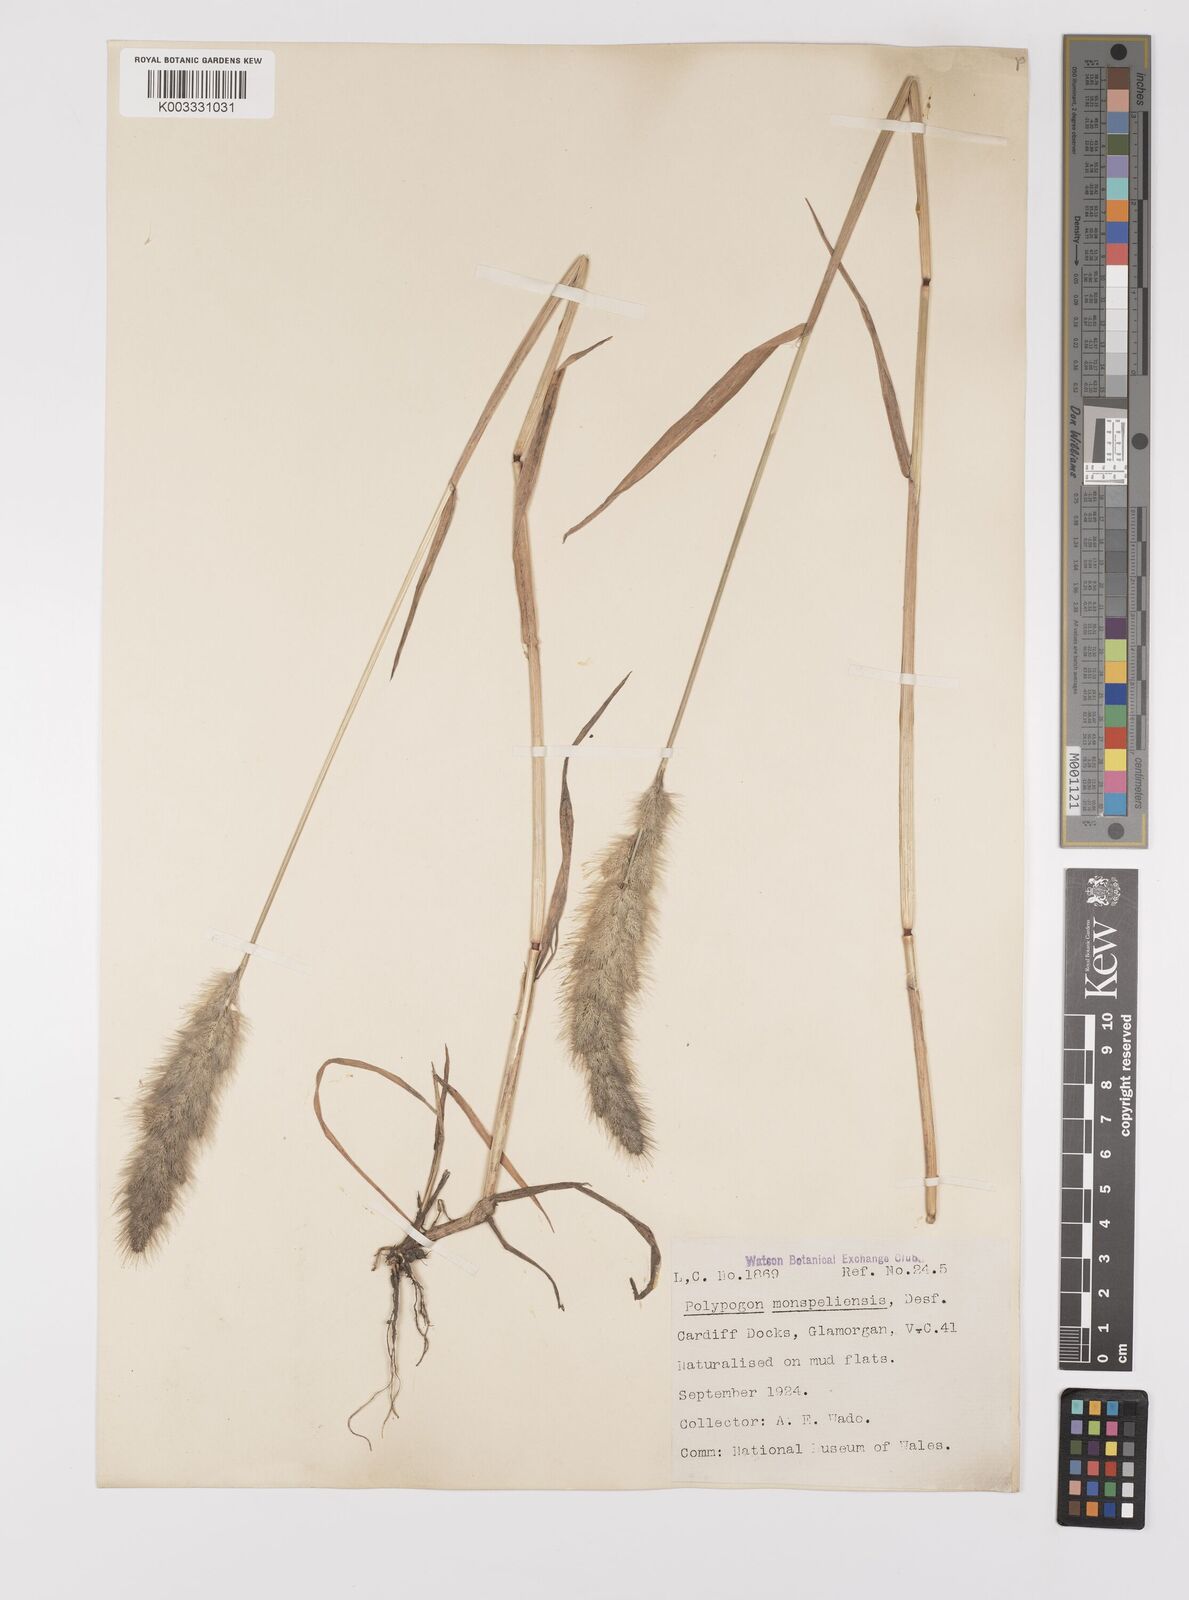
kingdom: Plantae
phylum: Tracheophyta
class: Liliopsida
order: Poales
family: Poaceae
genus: Polypogon
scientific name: Polypogon monspeliensis
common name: Annual rabbitsfoot grass
